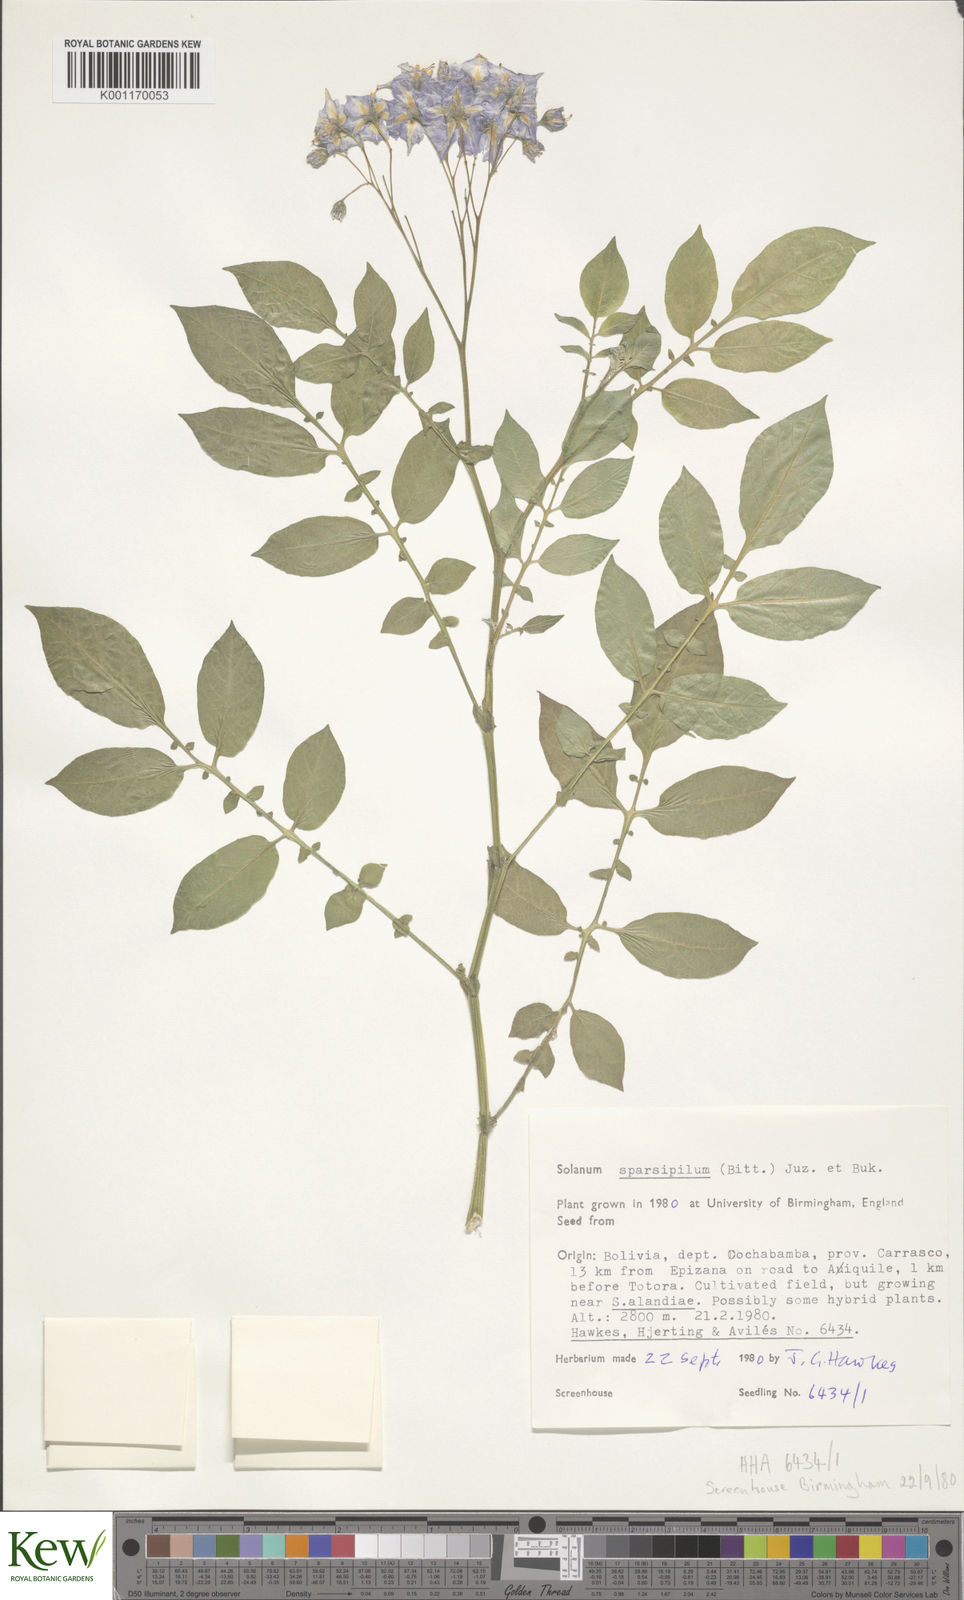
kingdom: Plantae
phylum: Tracheophyta
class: Magnoliopsida
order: Solanales
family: Solanaceae
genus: Solanum
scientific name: Solanum brevicaule
